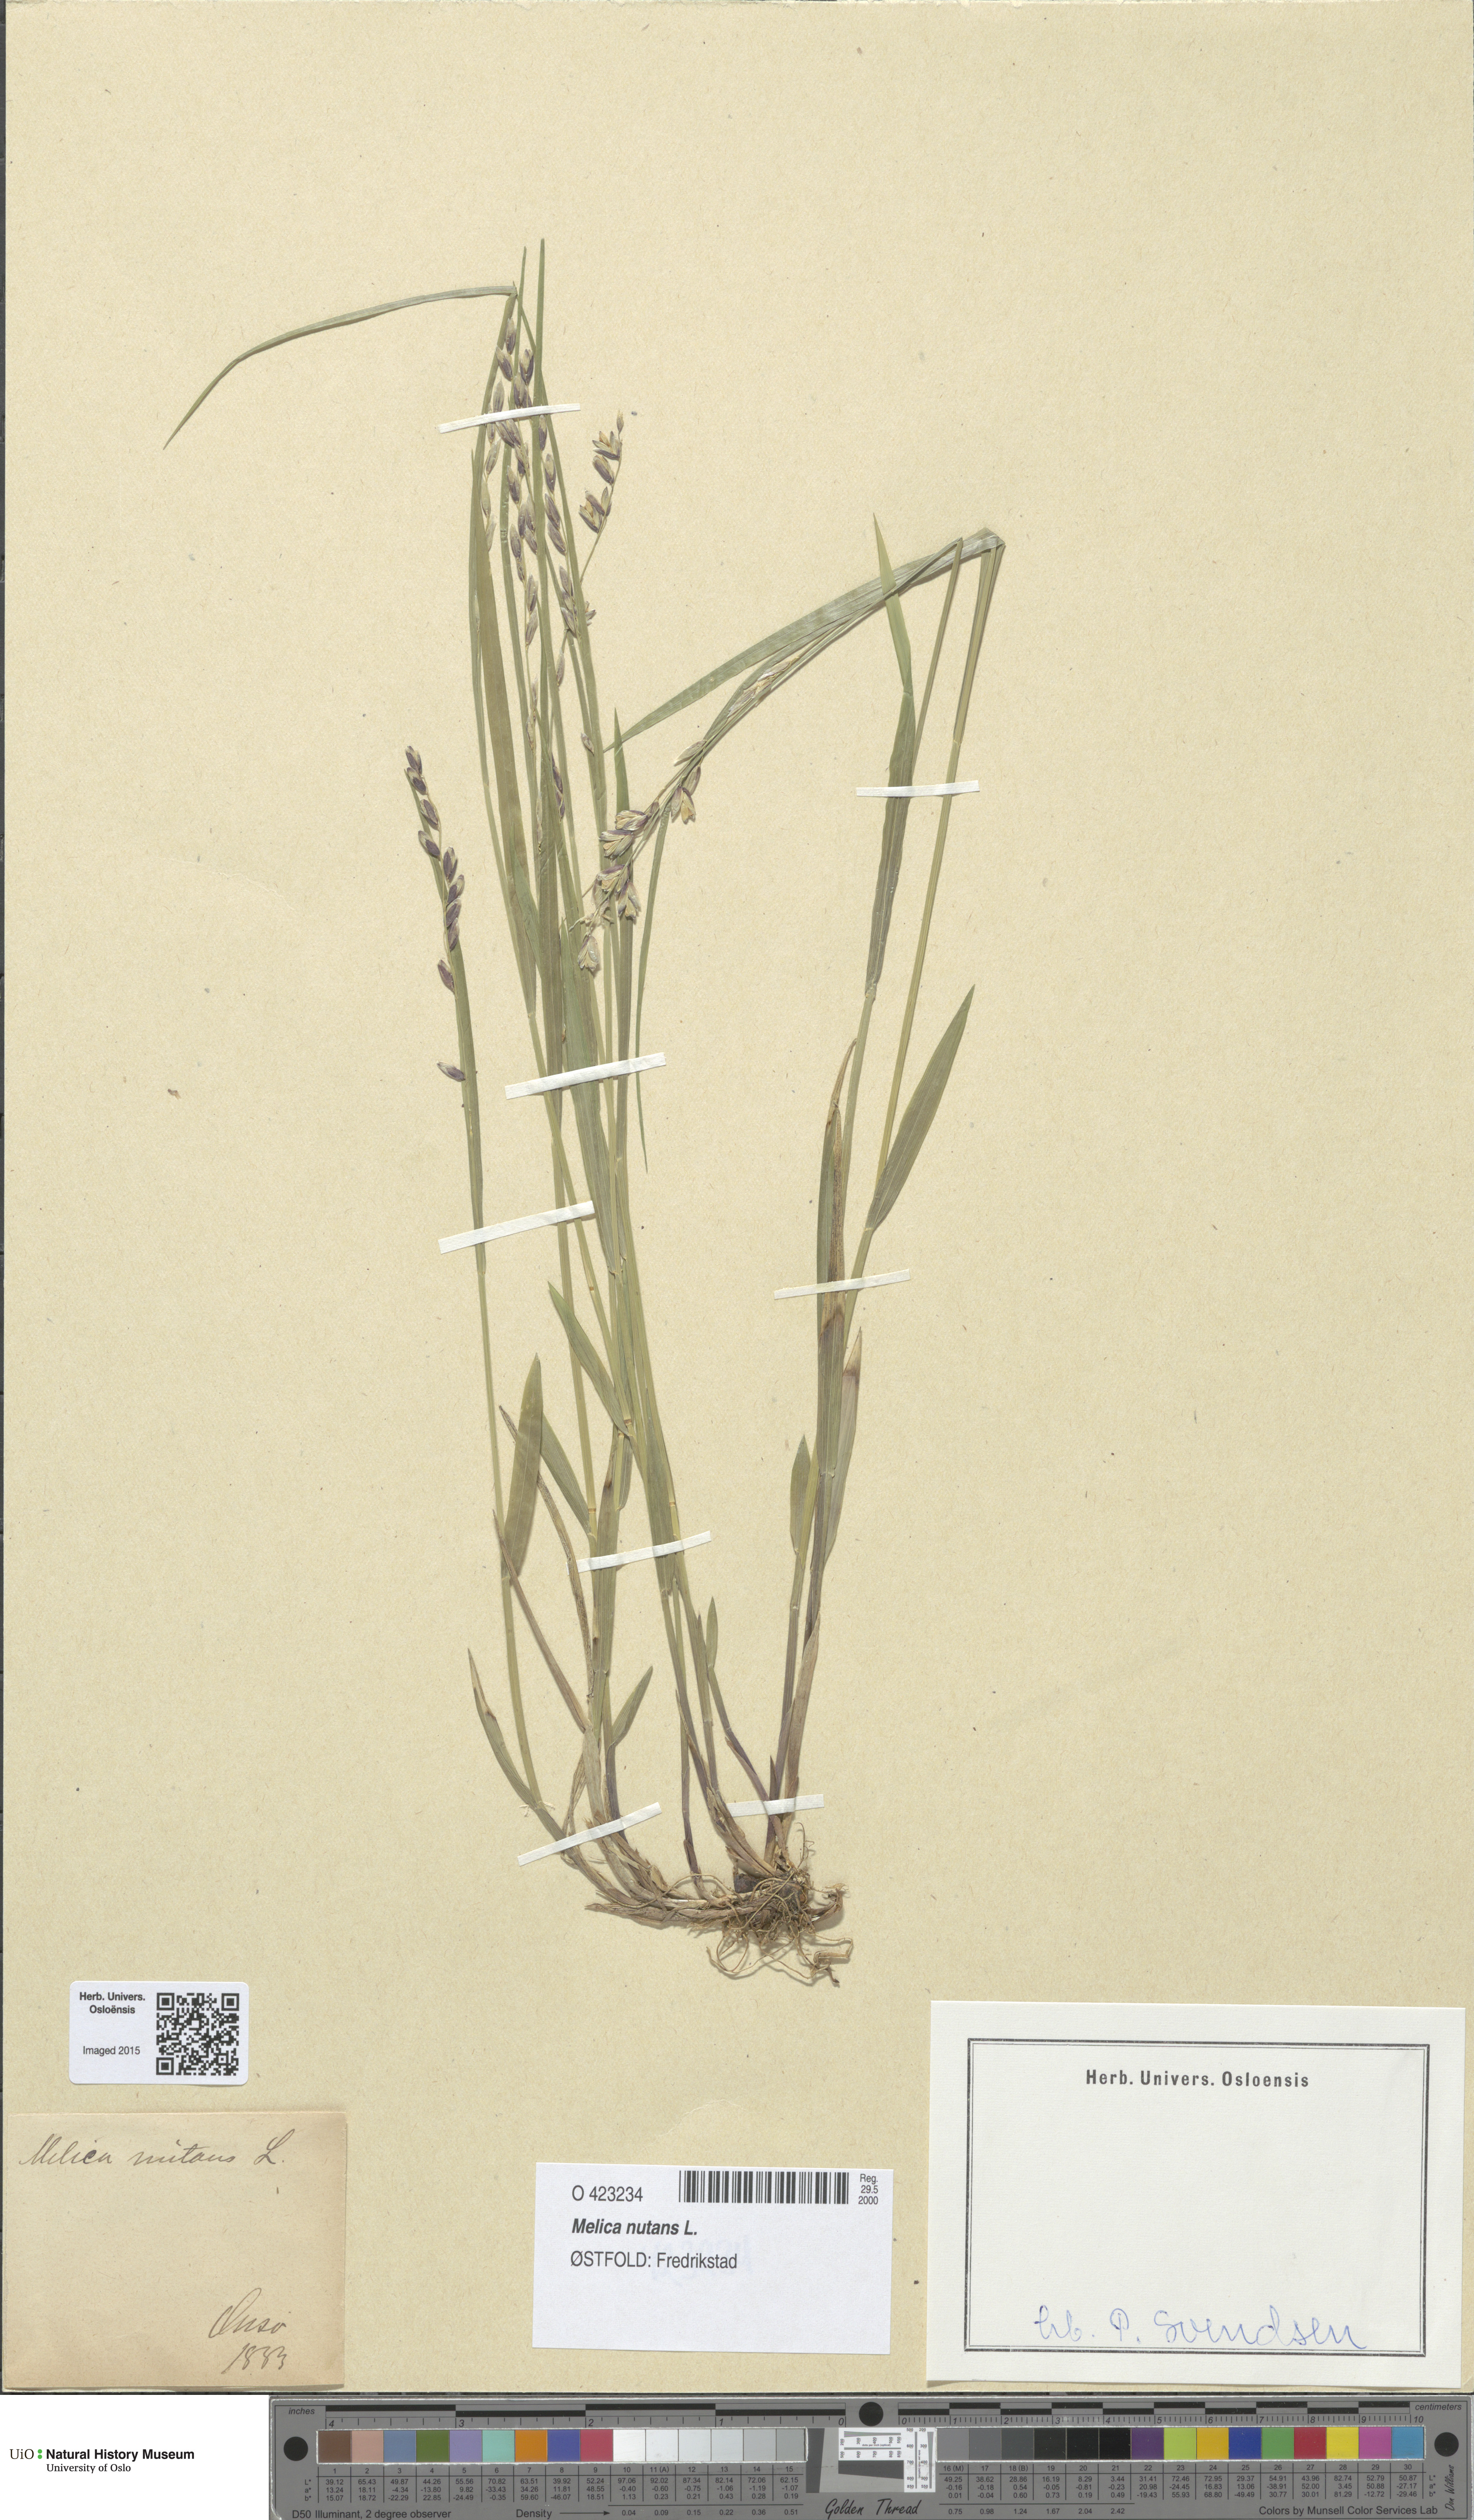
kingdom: Plantae
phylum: Tracheophyta
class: Liliopsida
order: Poales
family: Poaceae
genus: Melica
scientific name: Melica nutans
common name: Mountain melick
